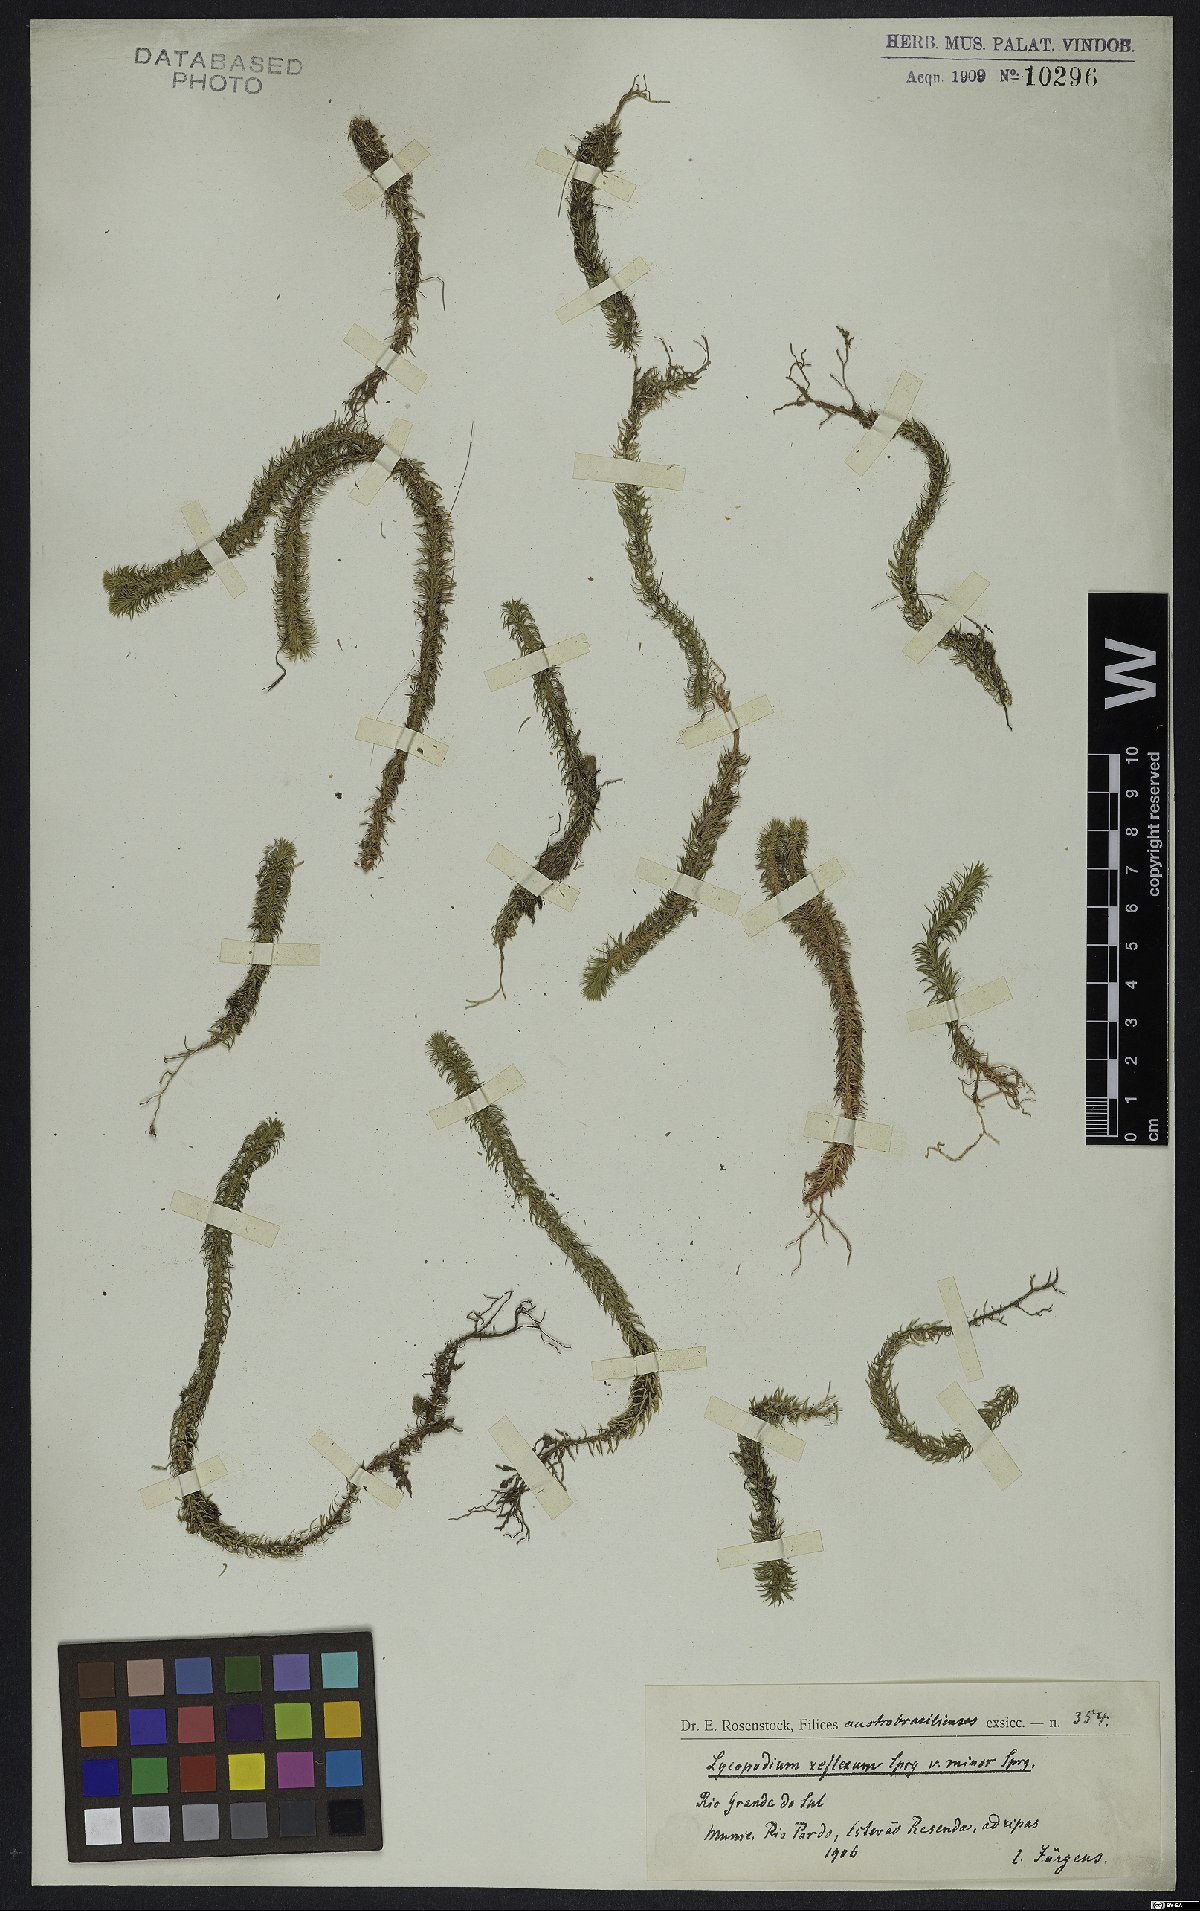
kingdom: Plantae
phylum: Tracheophyta
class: Lycopodiopsida
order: Lycopodiales
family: Lycopodiaceae
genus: Phlegmariurus
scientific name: Phlegmariurus reflexus
